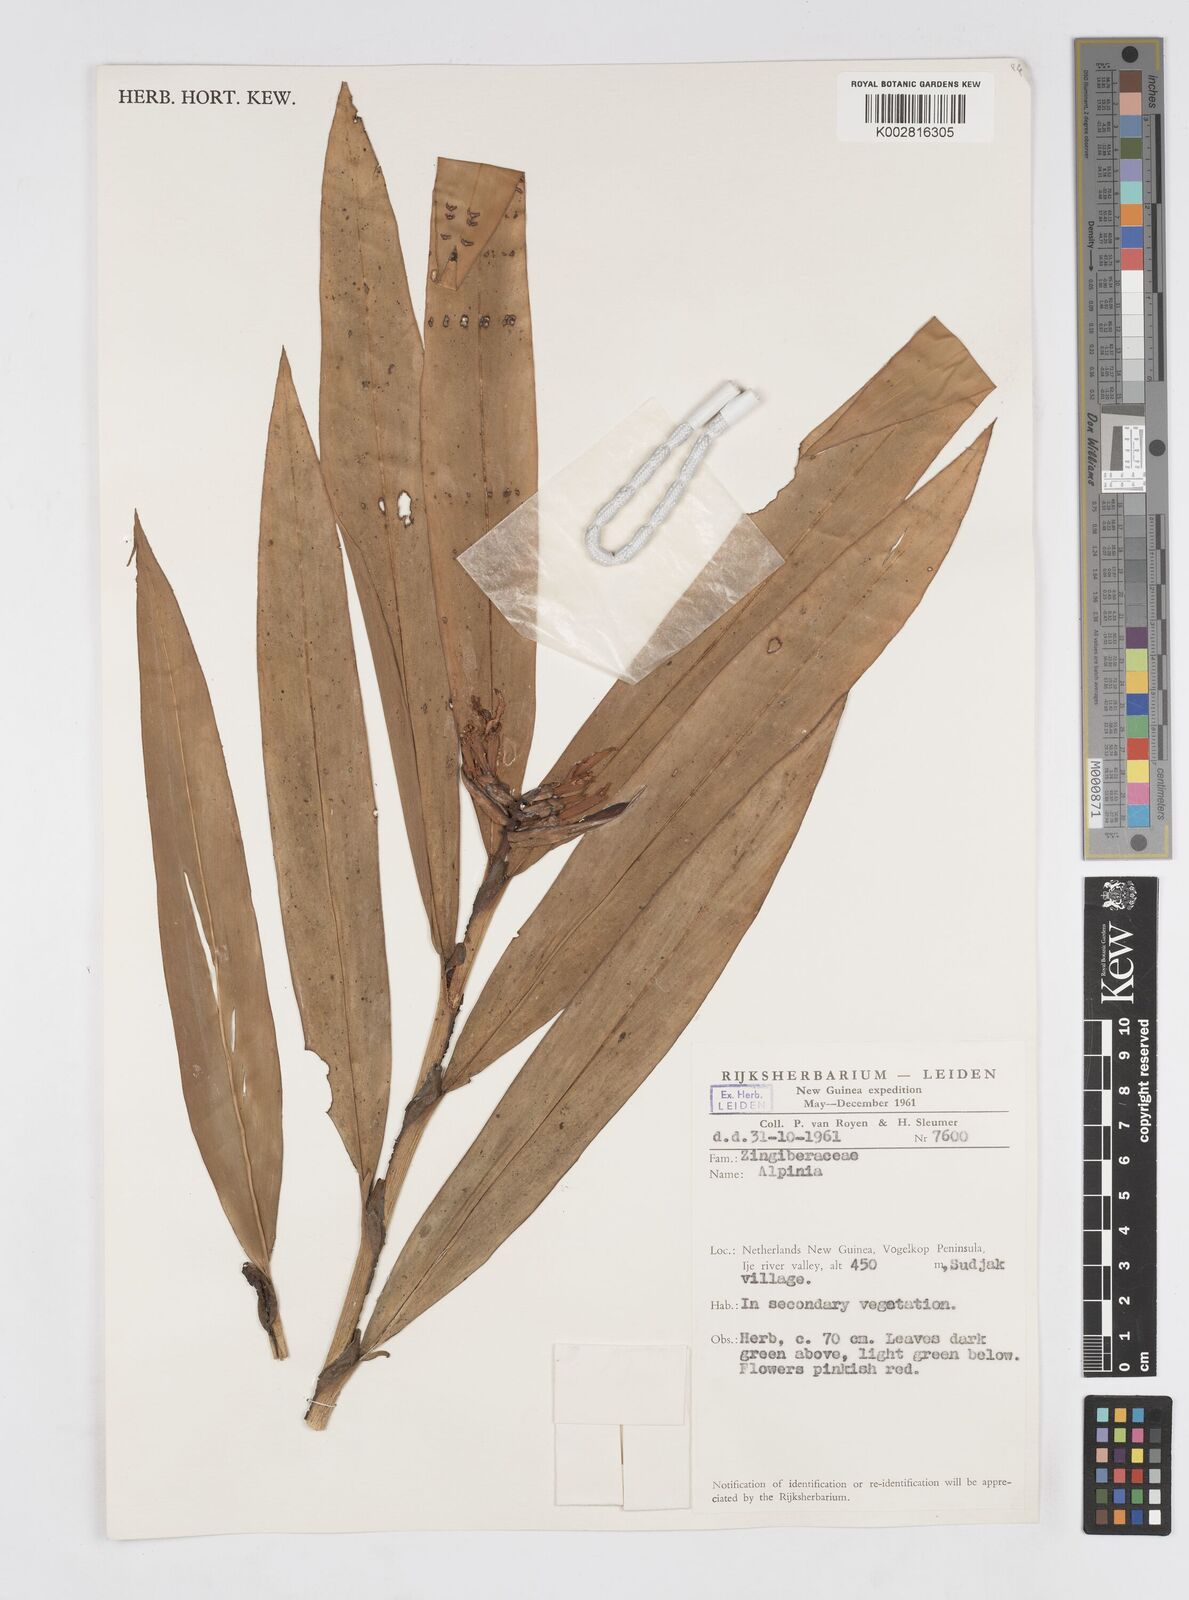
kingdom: Plantae
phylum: Tracheophyta
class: Liliopsida
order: Zingiberales
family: Zingiberaceae
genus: Alpinia
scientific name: Alpinia domatifera
